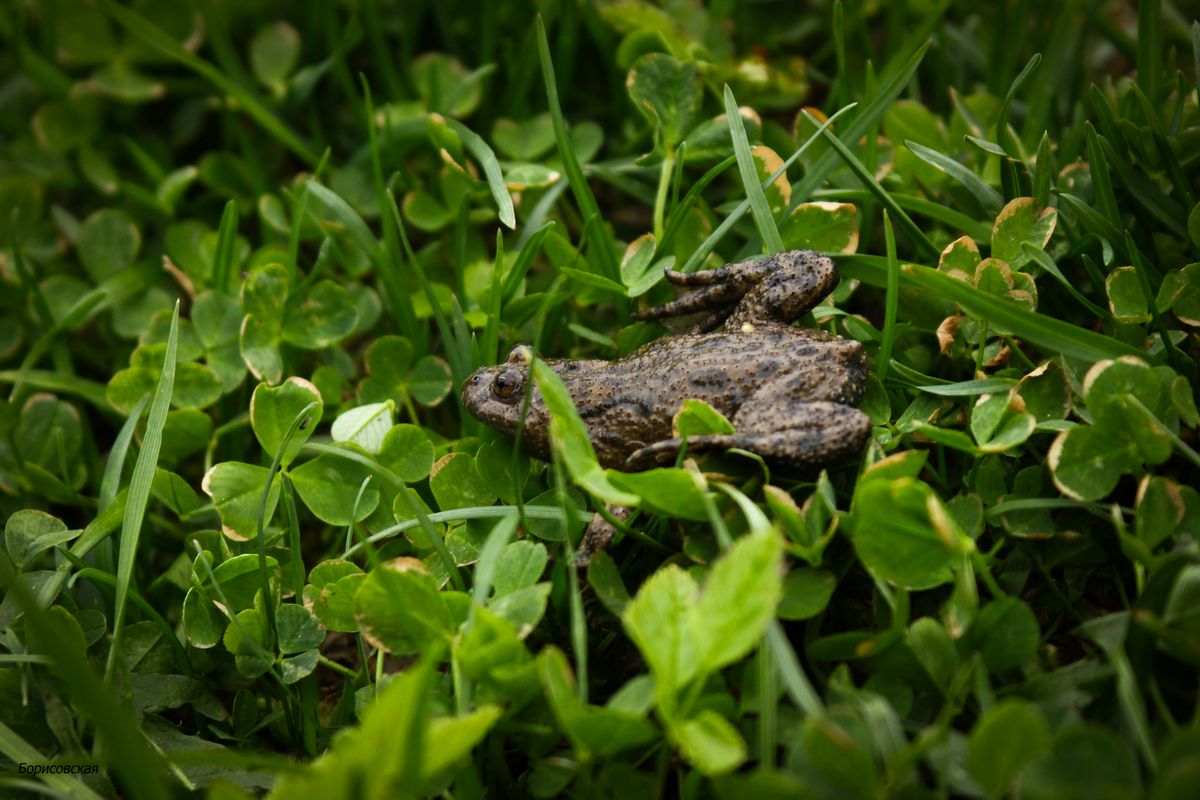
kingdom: Animalia
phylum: Chordata
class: Amphibia
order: Anura
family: Bombinatoridae
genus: Bombina
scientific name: Bombina bombina
